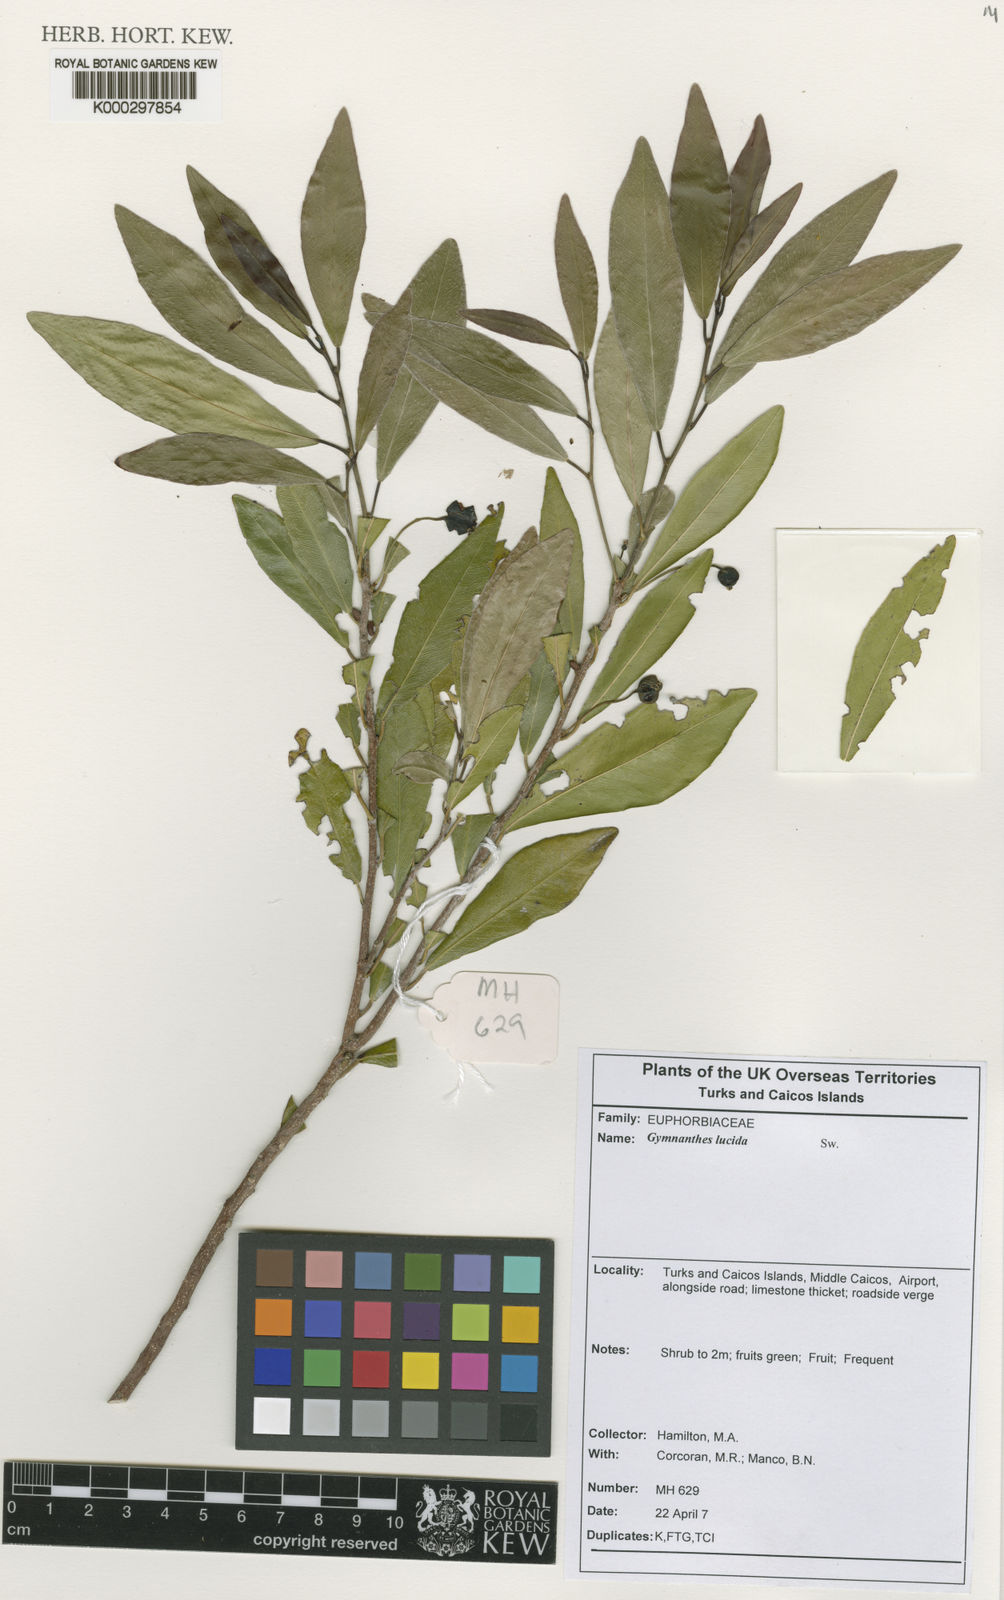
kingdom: Plantae
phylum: Tracheophyta
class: Magnoliopsida
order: Malpighiales
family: Euphorbiaceae
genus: Gymnanthes
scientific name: Gymnanthes lucida
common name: Oysterwood
